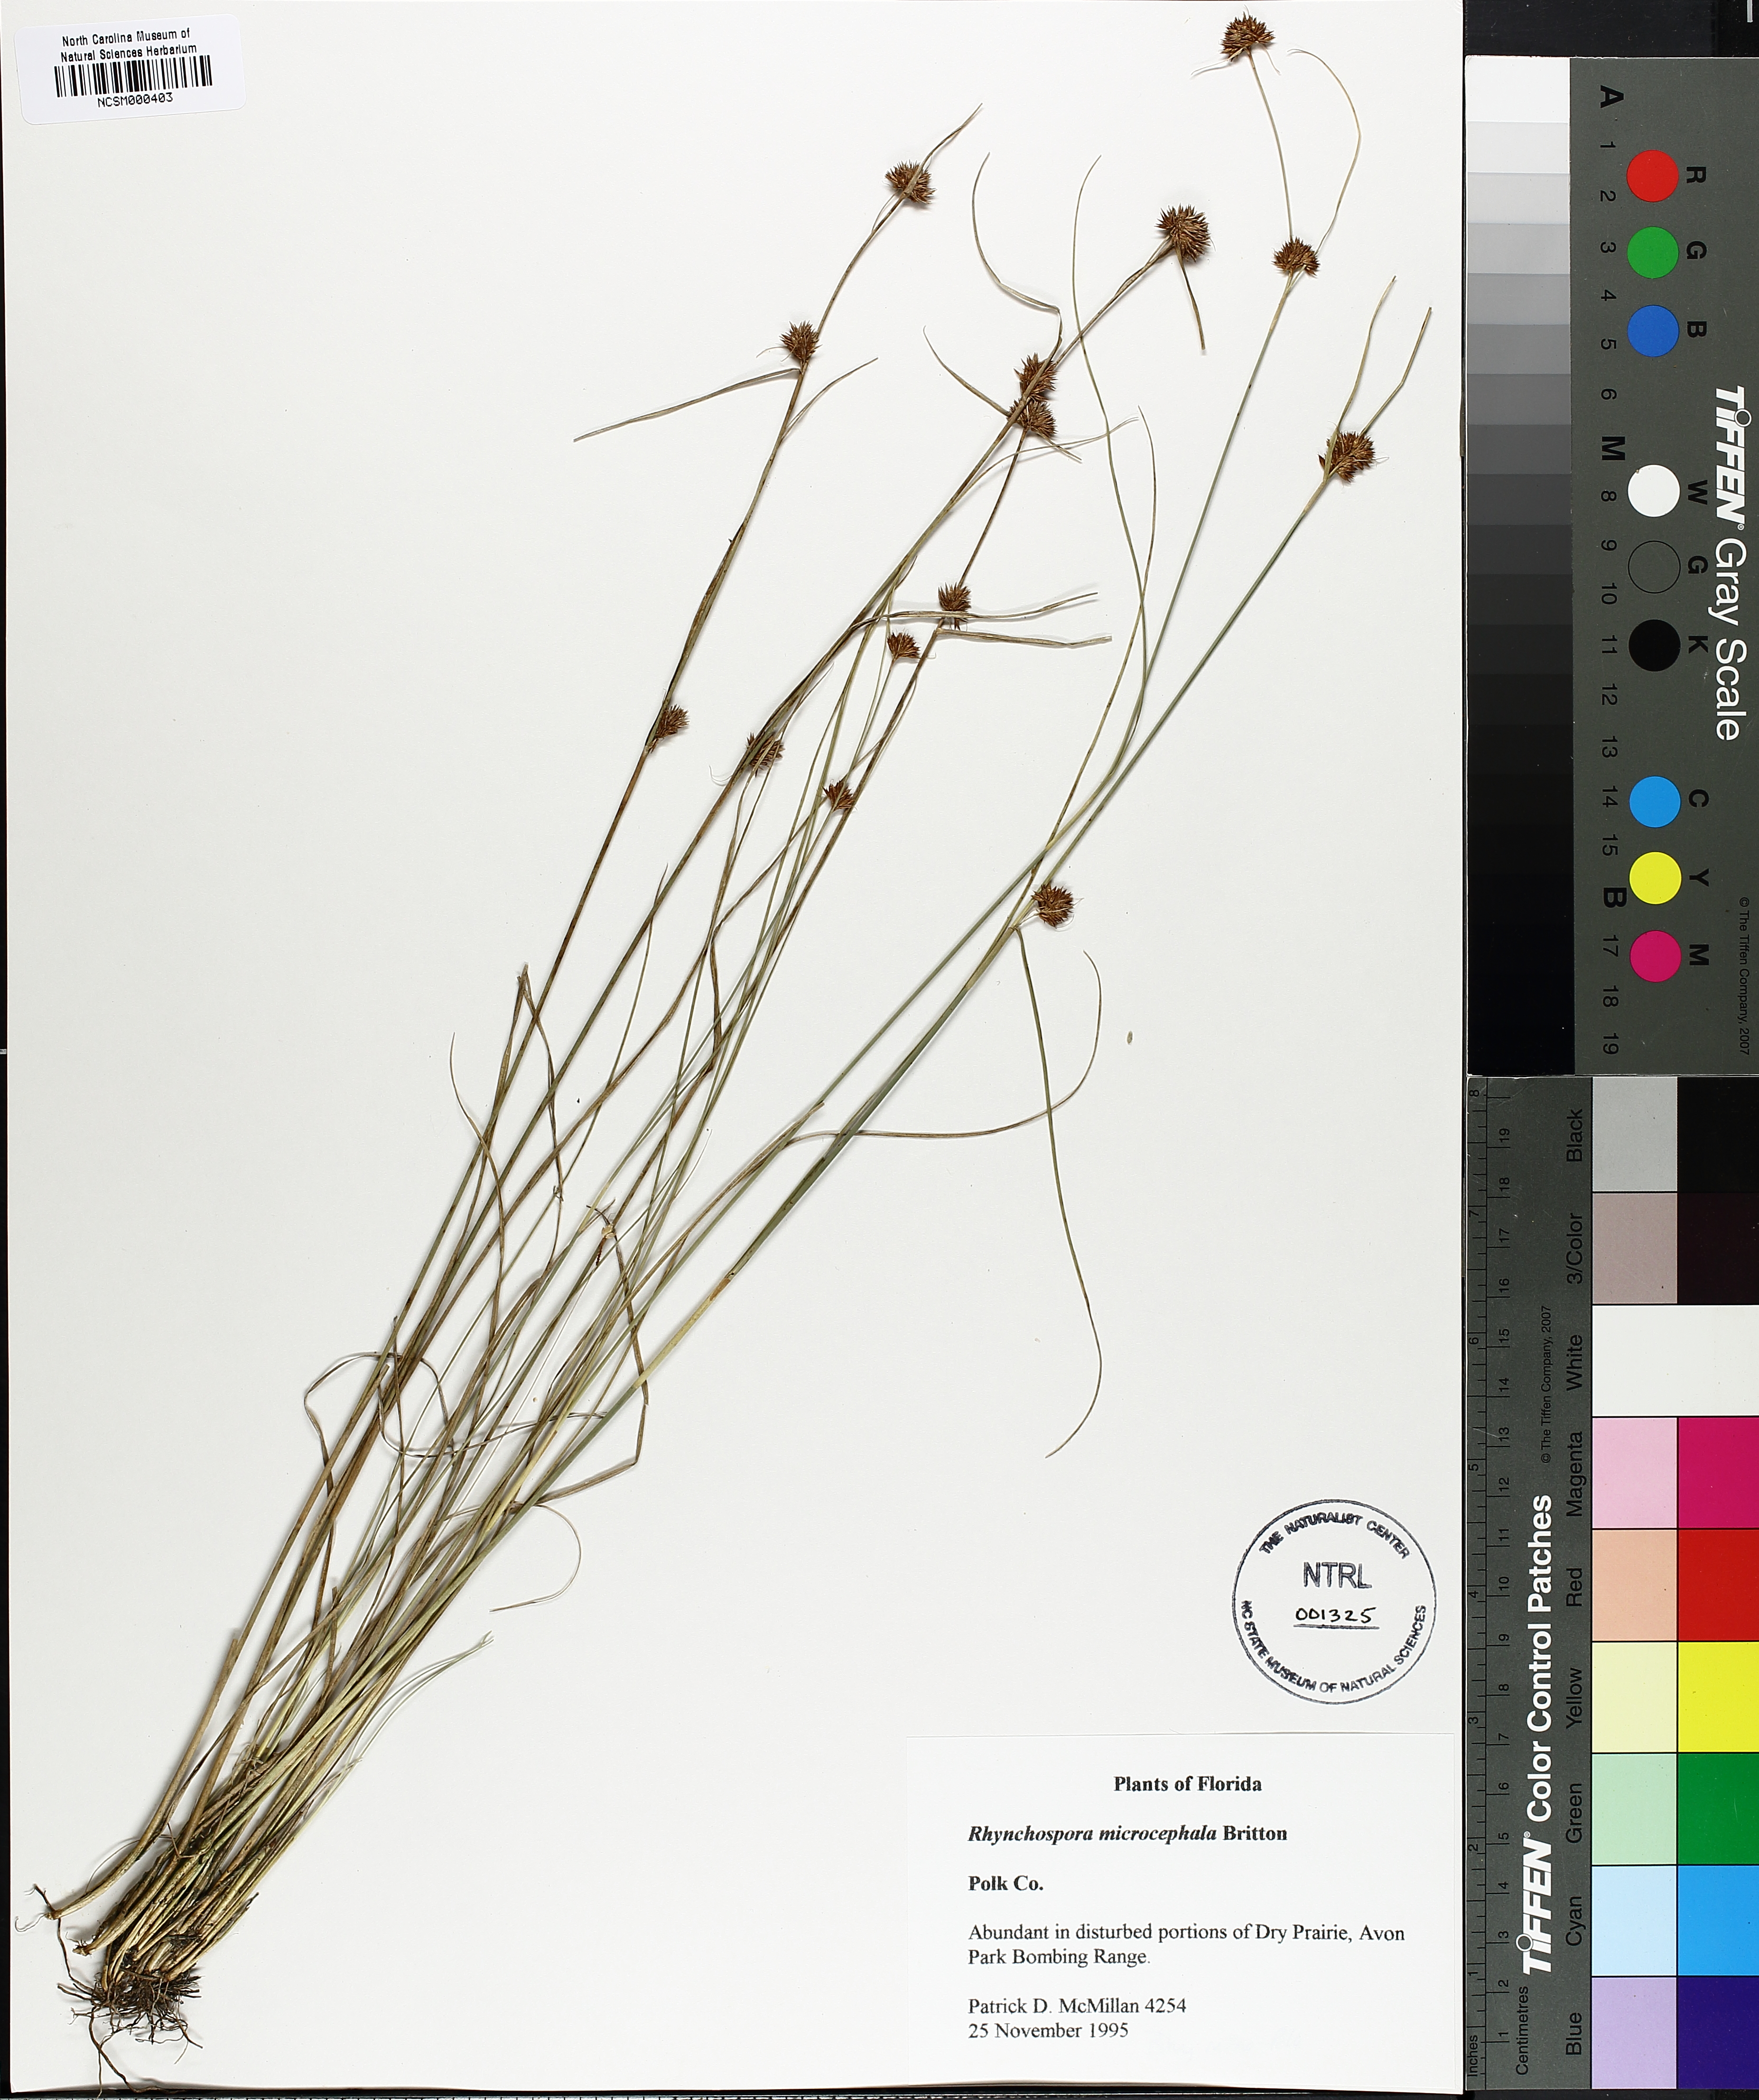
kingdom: Plantae
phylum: Tracheophyta
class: Liliopsida
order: Poales
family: Cyperaceae
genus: Rhynchospora
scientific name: Rhynchospora microcephala
